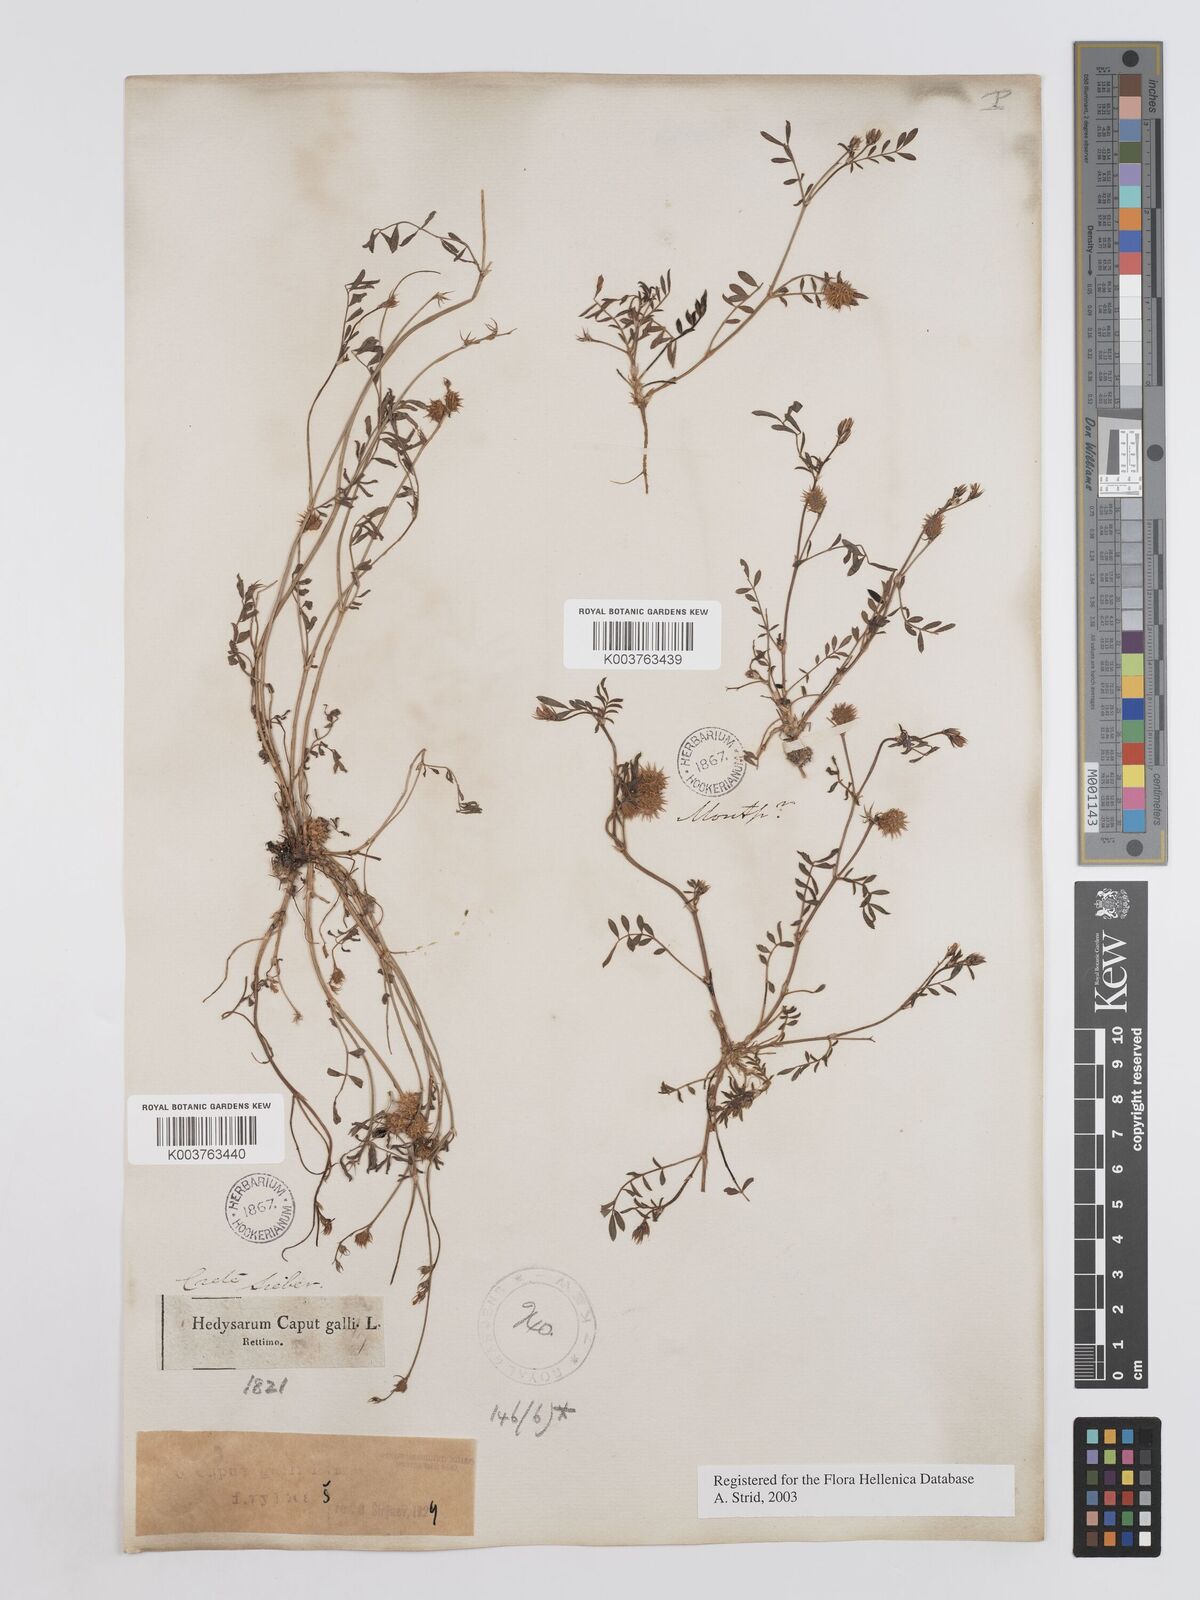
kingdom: Plantae
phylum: Tracheophyta
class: Magnoliopsida
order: Fabales
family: Fabaceae
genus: Onobrychis
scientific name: Onobrychis caput-galli
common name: Cockscomb sainfoin
